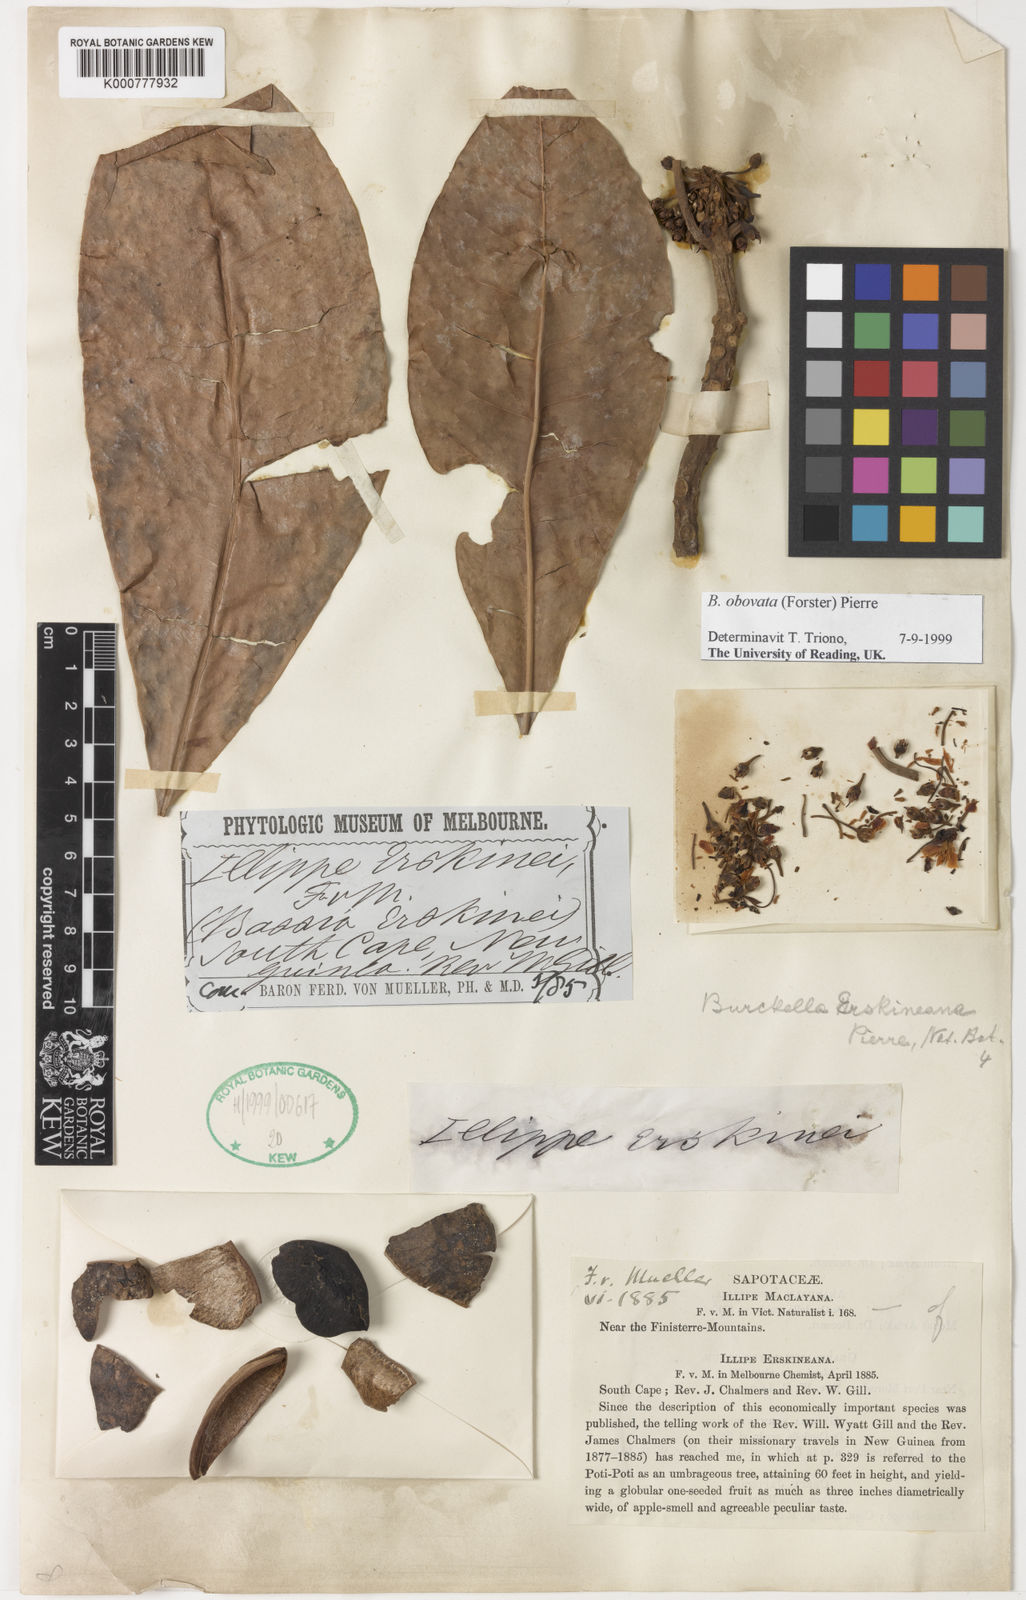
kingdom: Plantae
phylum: Tracheophyta
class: Magnoliopsida
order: Ericales
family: Sapotaceae
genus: Burckella
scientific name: Burckella obovata
